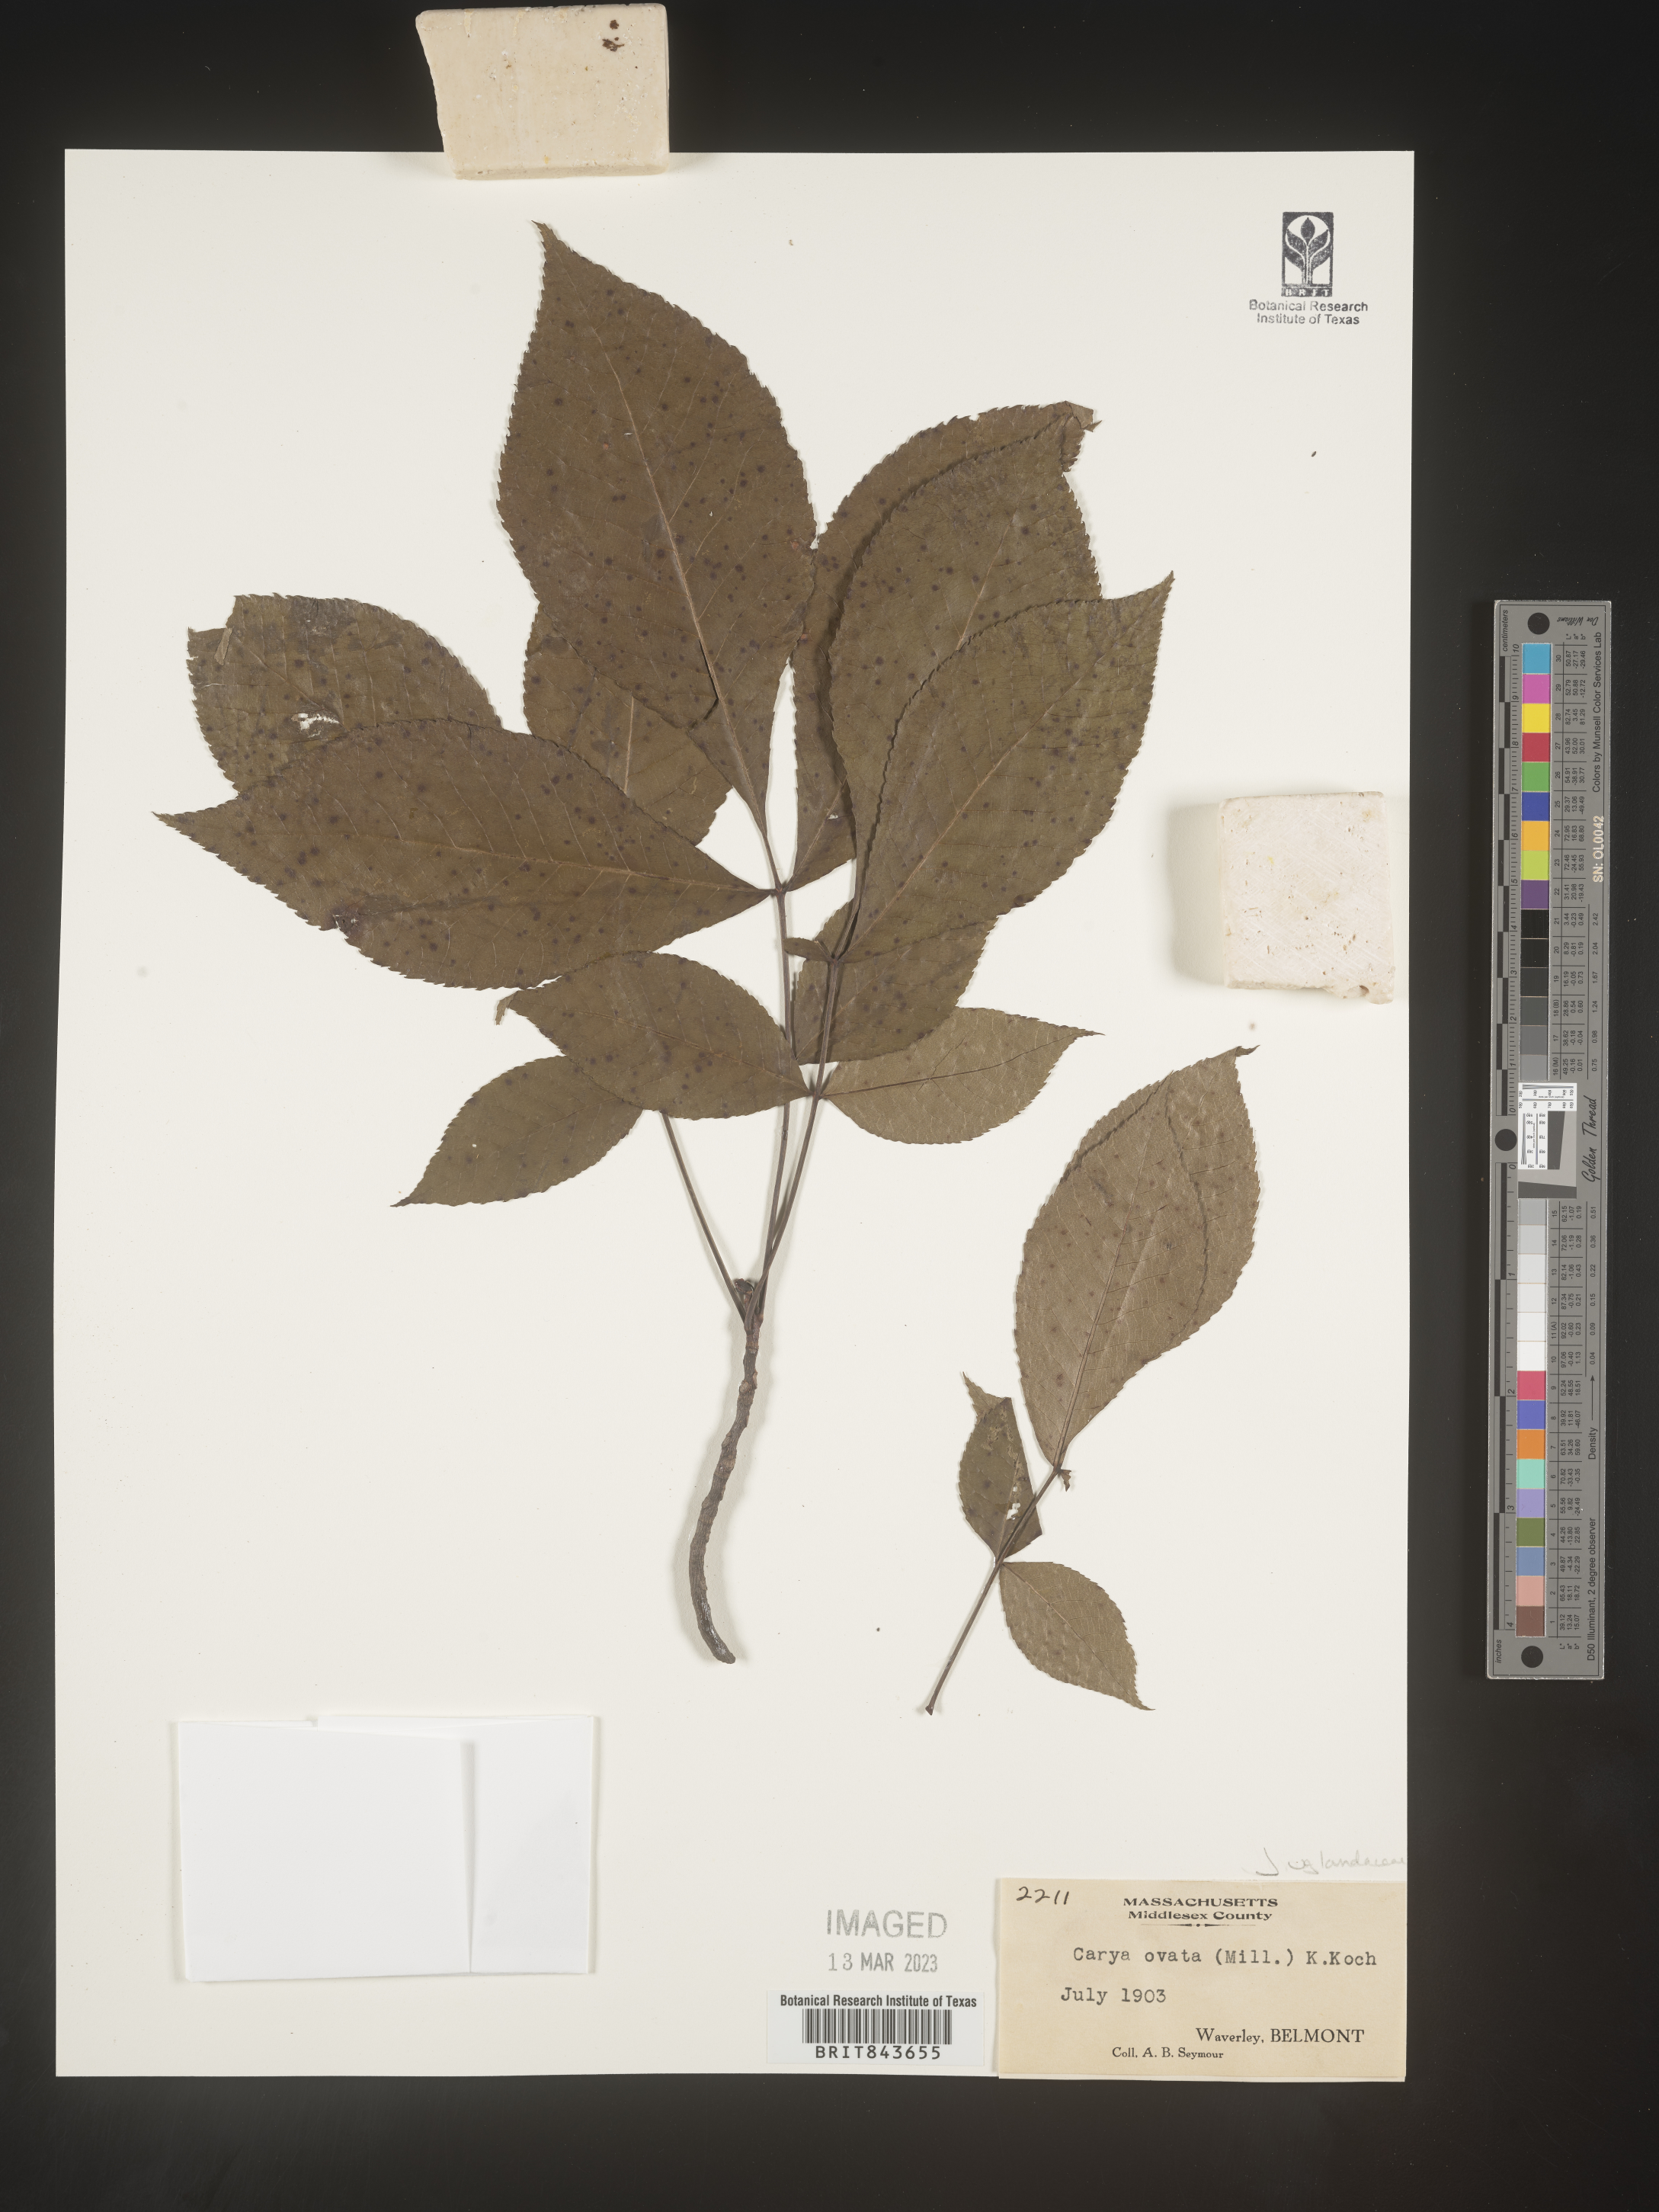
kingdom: Plantae
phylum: Tracheophyta
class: Magnoliopsida
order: Fagales
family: Juglandaceae
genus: Carya
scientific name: Carya ovata
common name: Shagbark hickory
